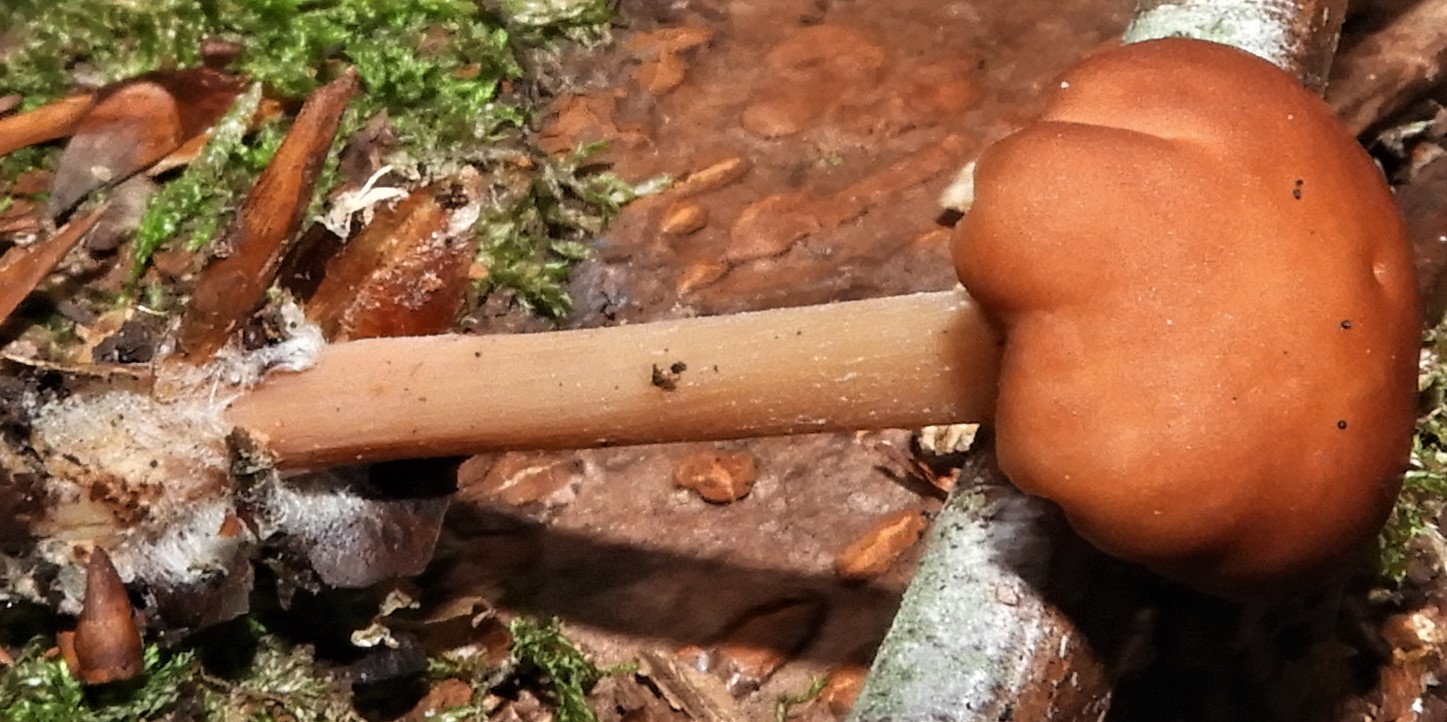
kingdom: Fungi
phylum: Basidiomycota
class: Agaricomycetes
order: Agaricales
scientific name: Agaricales
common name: champignonordenen
